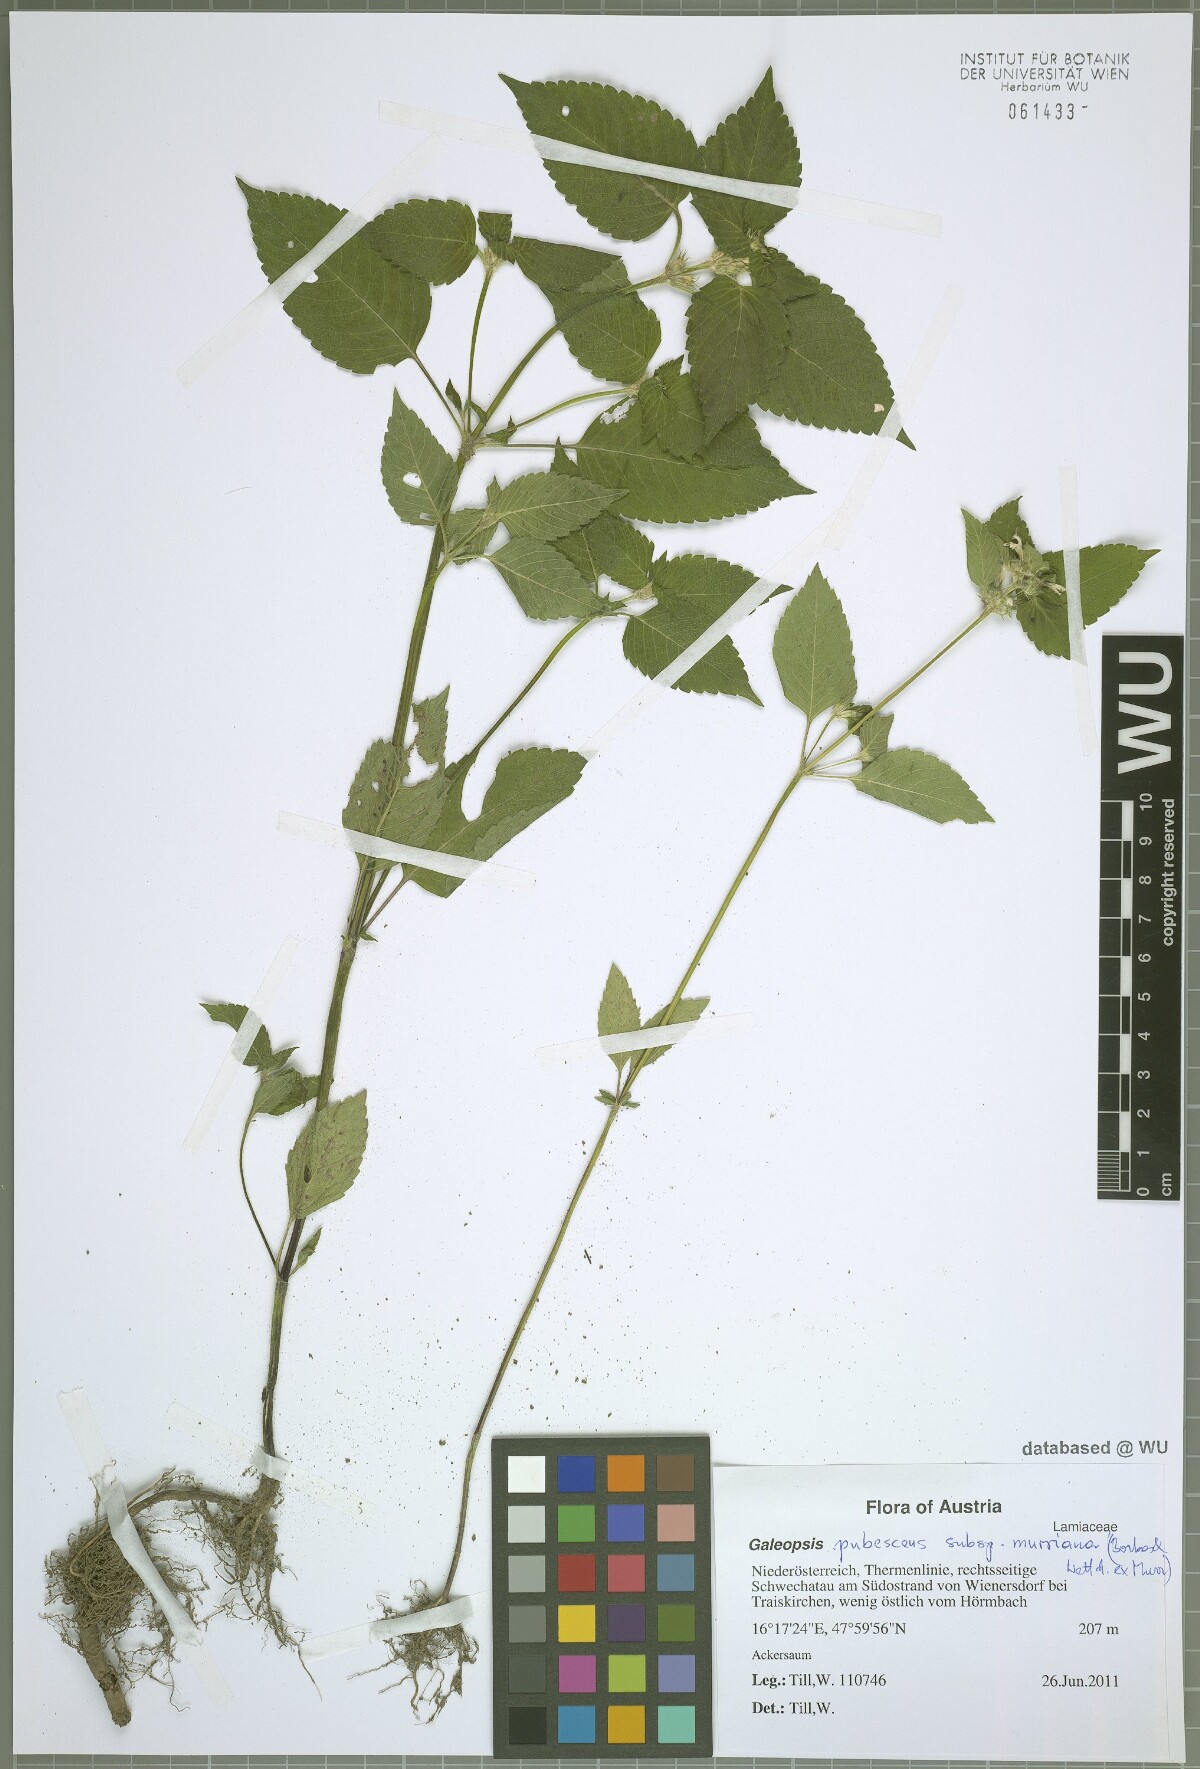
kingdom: Plantae
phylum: Tracheophyta
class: Magnoliopsida
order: Lamiales
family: Lamiaceae
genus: Galeopsis
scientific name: Galeopsis pubescens
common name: Downy hemp-nettle
